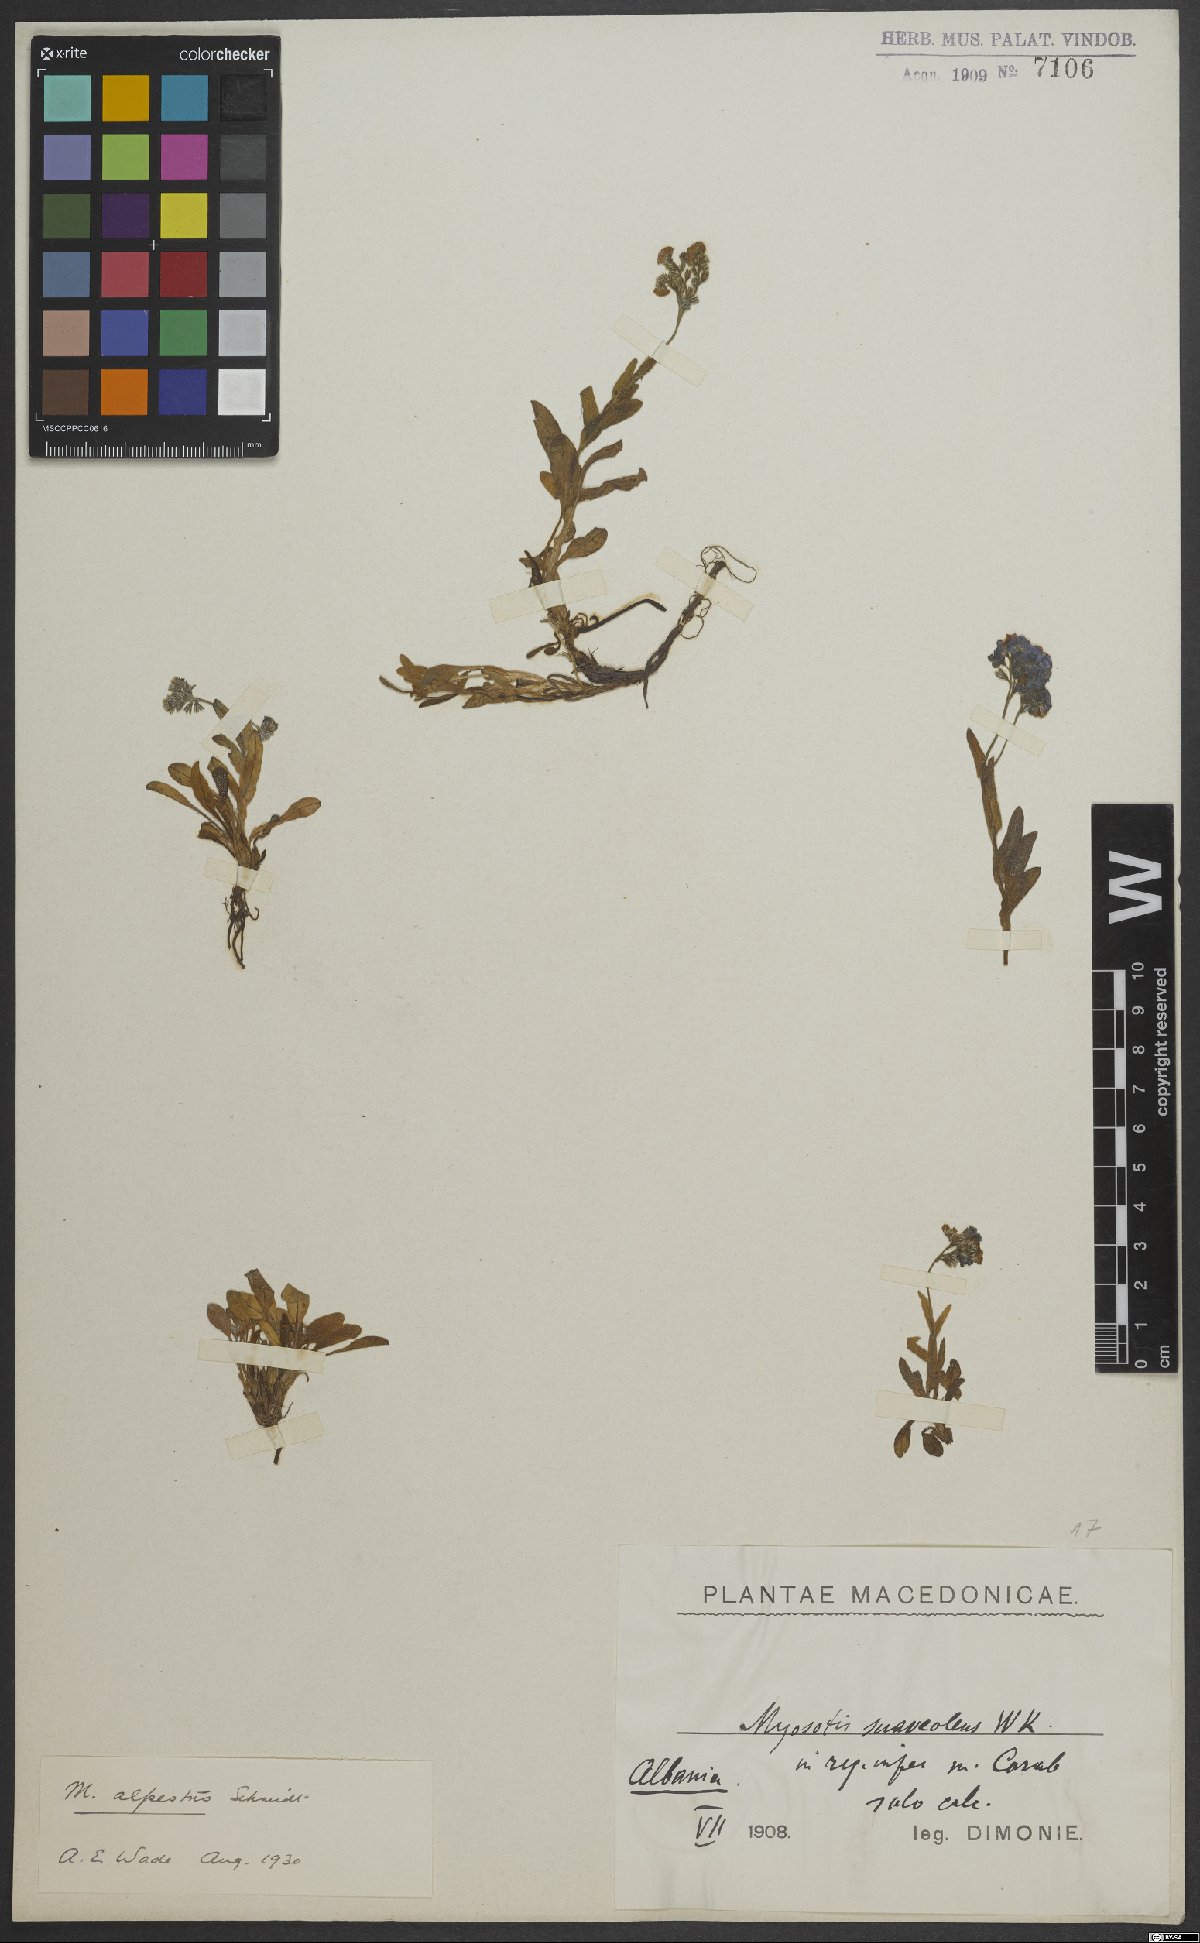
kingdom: Plantae
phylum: Tracheophyta
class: Magnoliopsida
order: Boraginales
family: Boraginaceae
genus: Myosotis
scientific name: Myosotis alpestris
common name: Alpine forget-me-not
